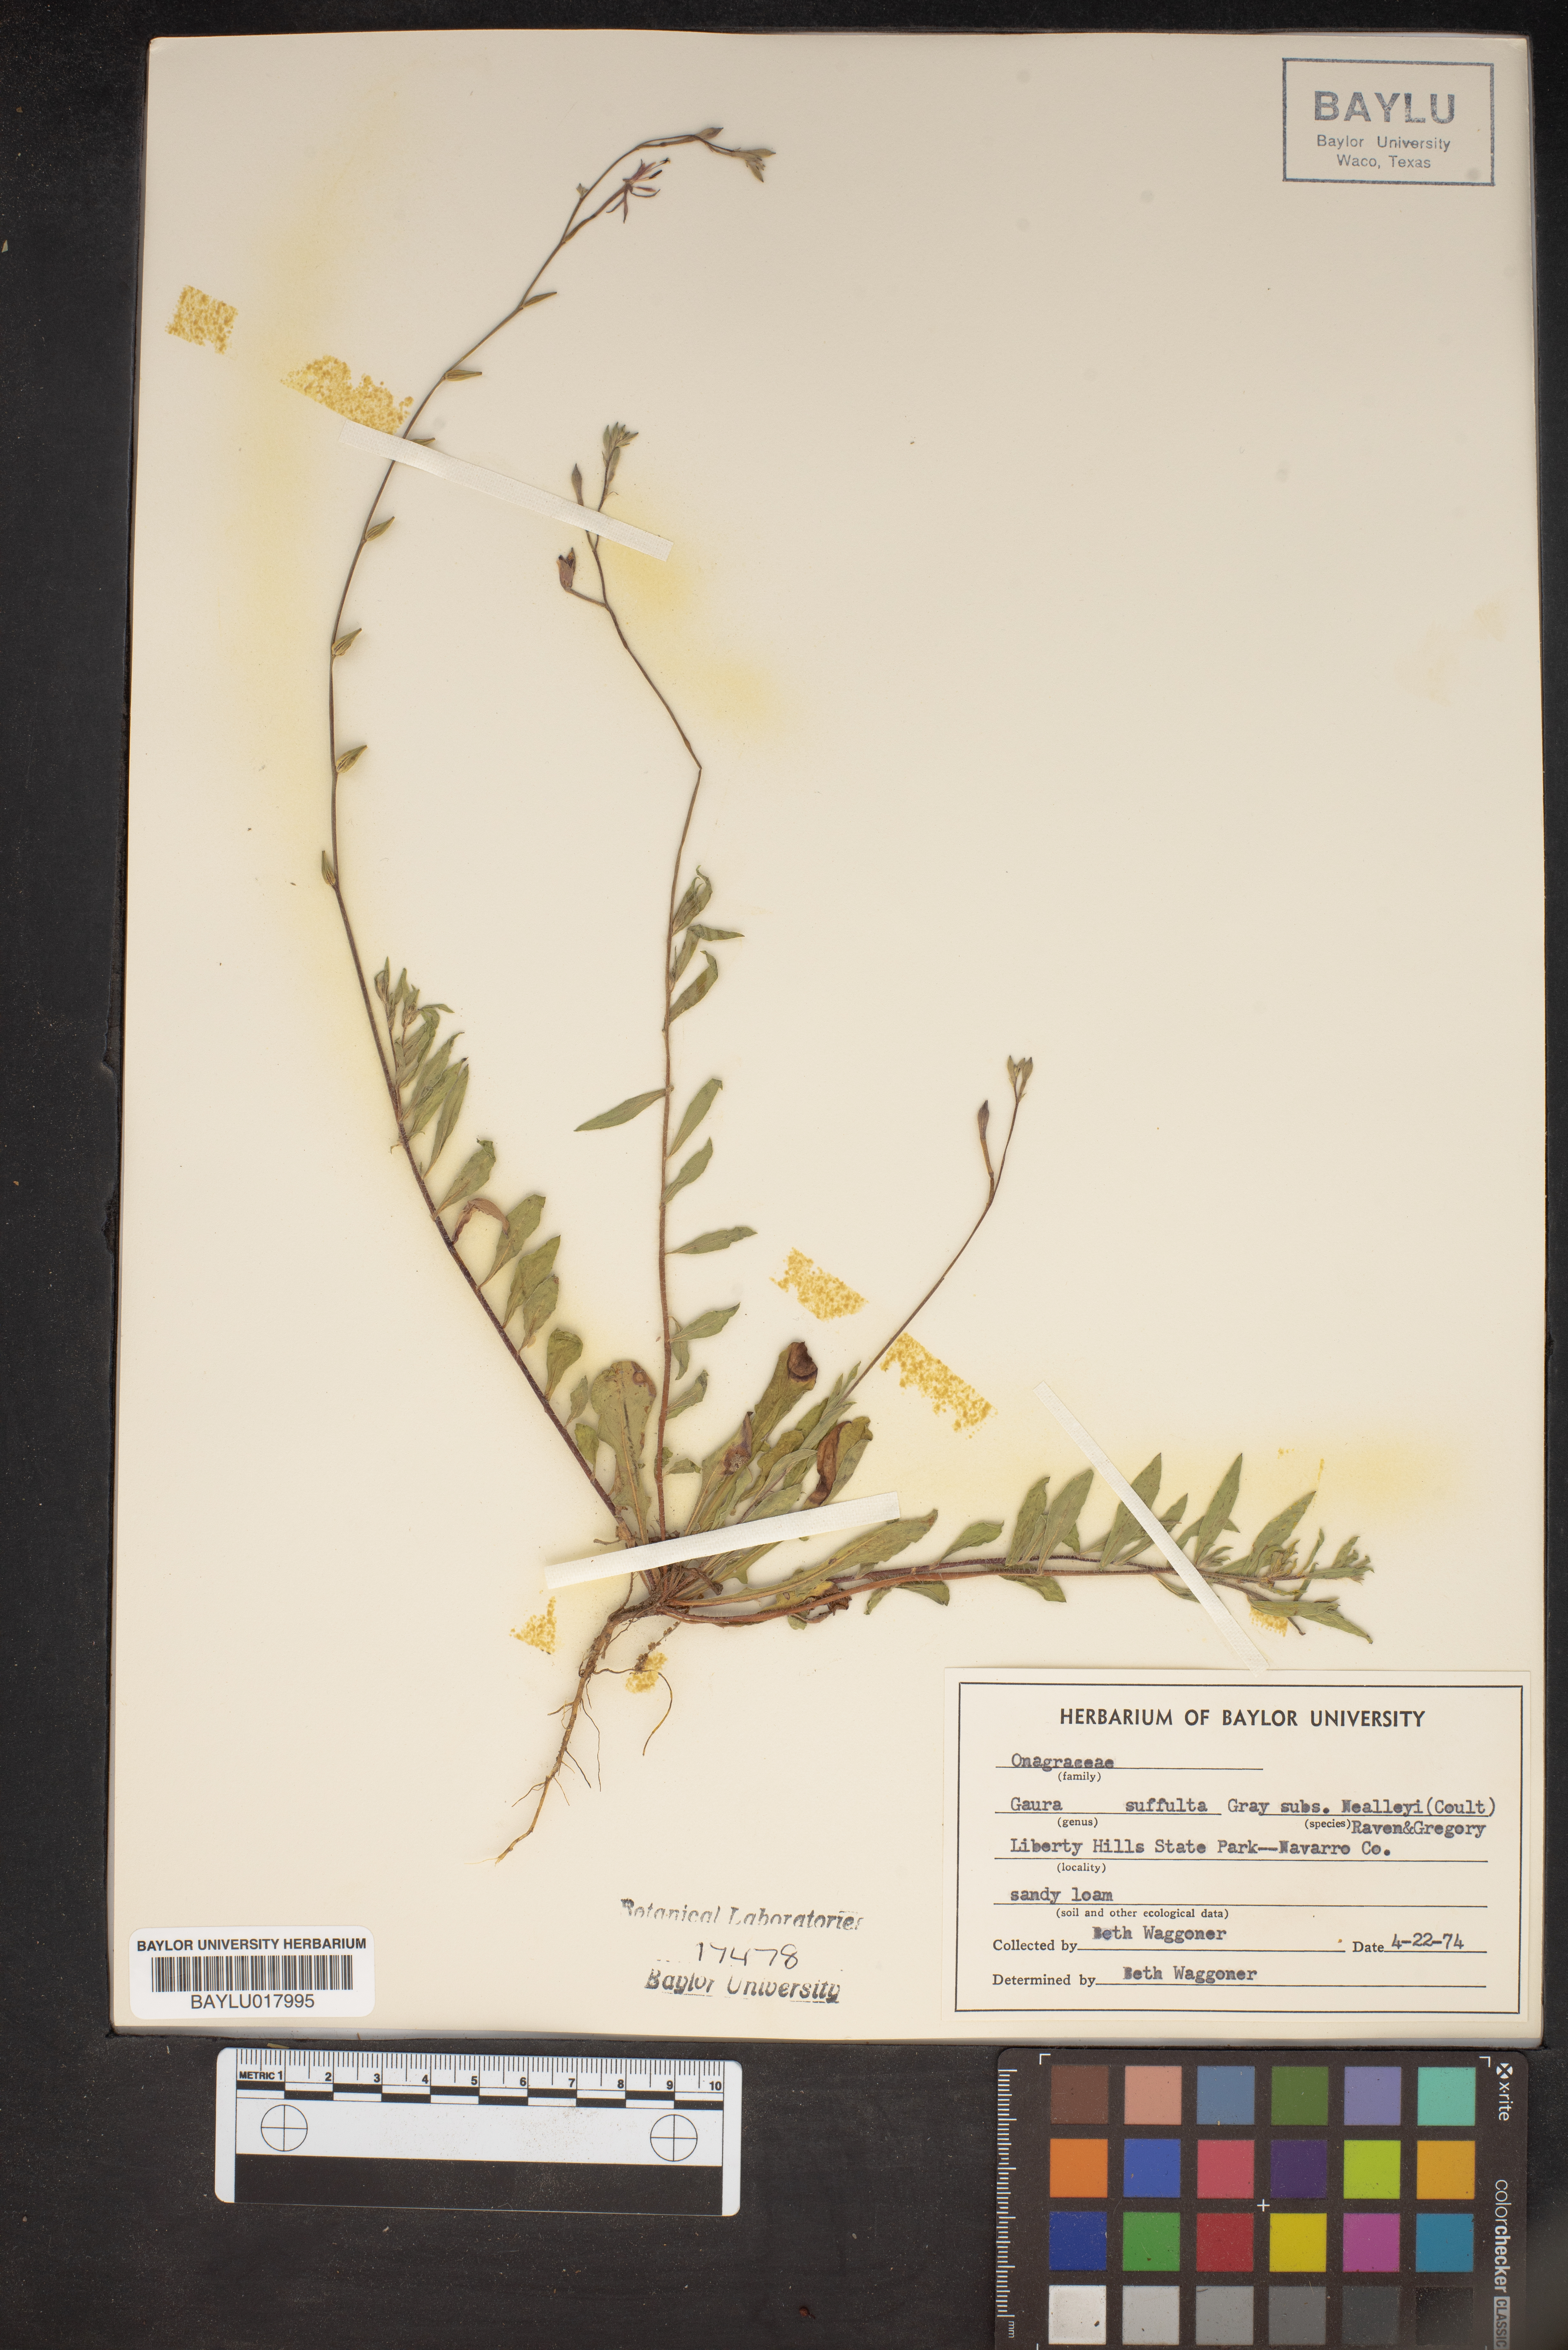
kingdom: Plantae
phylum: Tracheophyta
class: Magnoliopsida
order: Myrtales
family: Onagraceae
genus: Oenothera
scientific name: Oenothera Gaura suffulta
